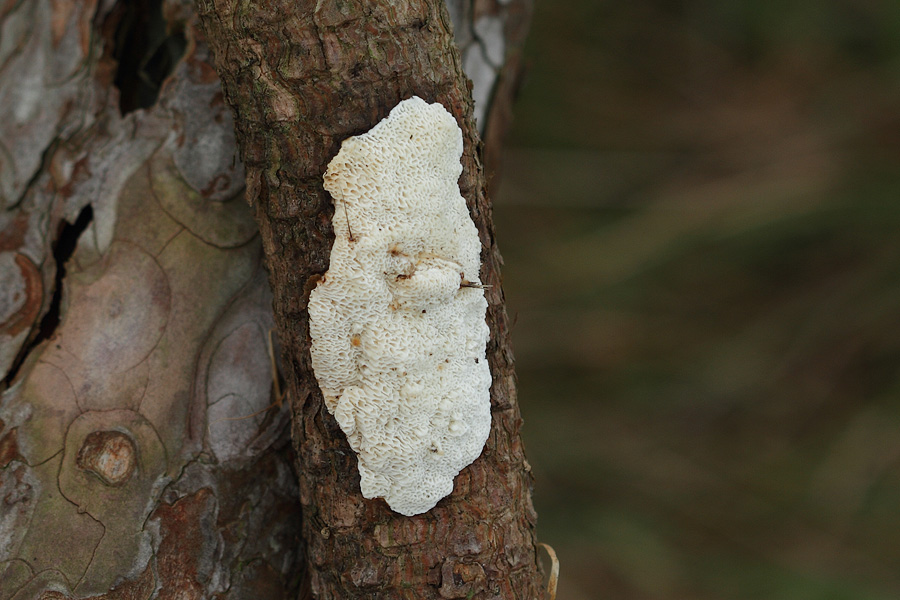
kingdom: Fungi
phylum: Basidiomycota
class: Agaricomycetes
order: Polyporales
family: Fomitopsidaceae
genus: Fomitopsis
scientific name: Fomitopsis
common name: fyrre-skiveporesvamp
